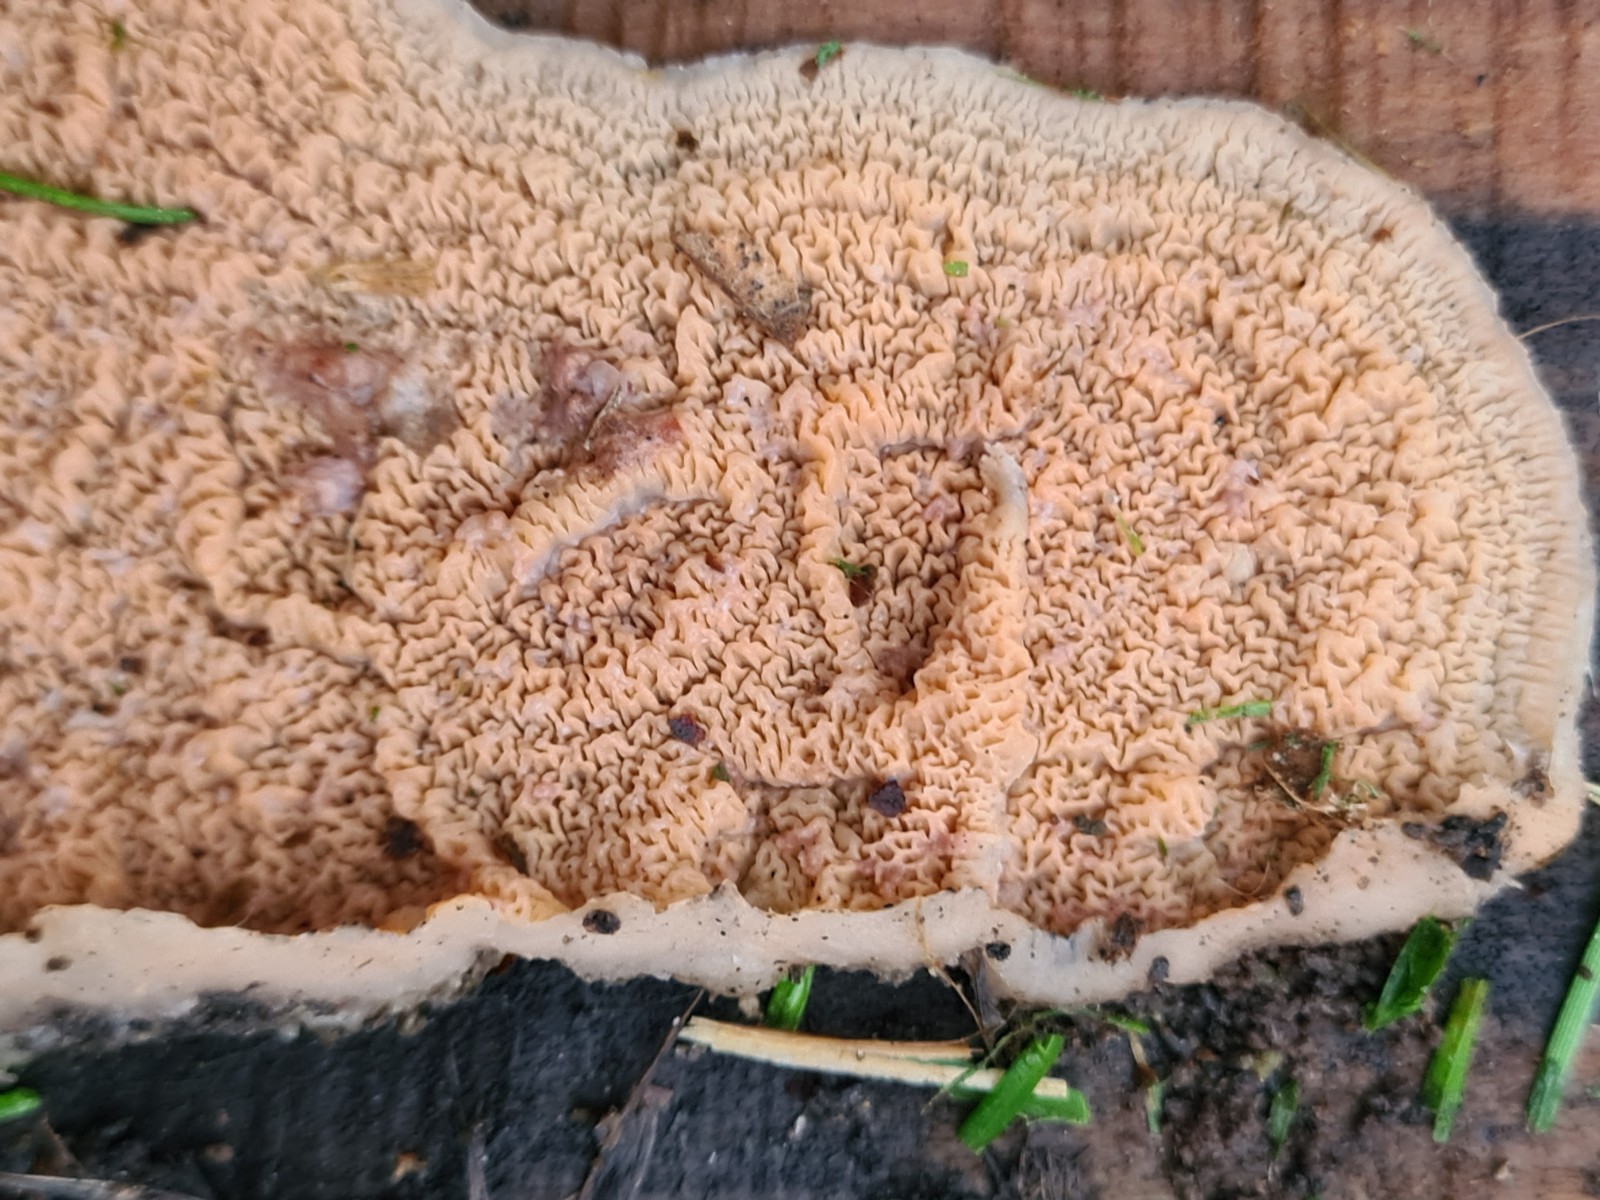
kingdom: Fungi
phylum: Basidiomycota
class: Agaricomycetes
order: Polyporales
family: Meruliaceae
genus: Phlebia
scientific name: Phlebia radiata
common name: stråle-åresvamp
